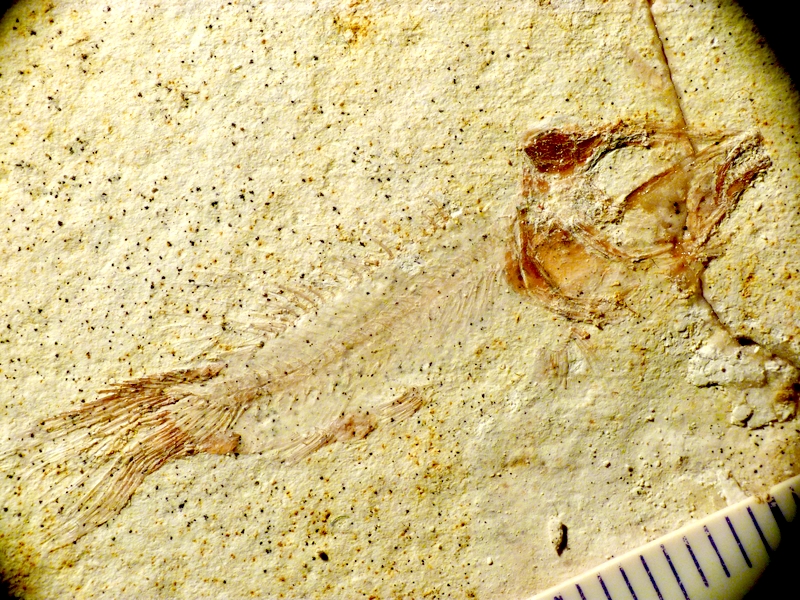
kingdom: Animalia
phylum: Chordata
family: Macrosemiidae
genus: Notagogus
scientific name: Notagogus denticulatus
